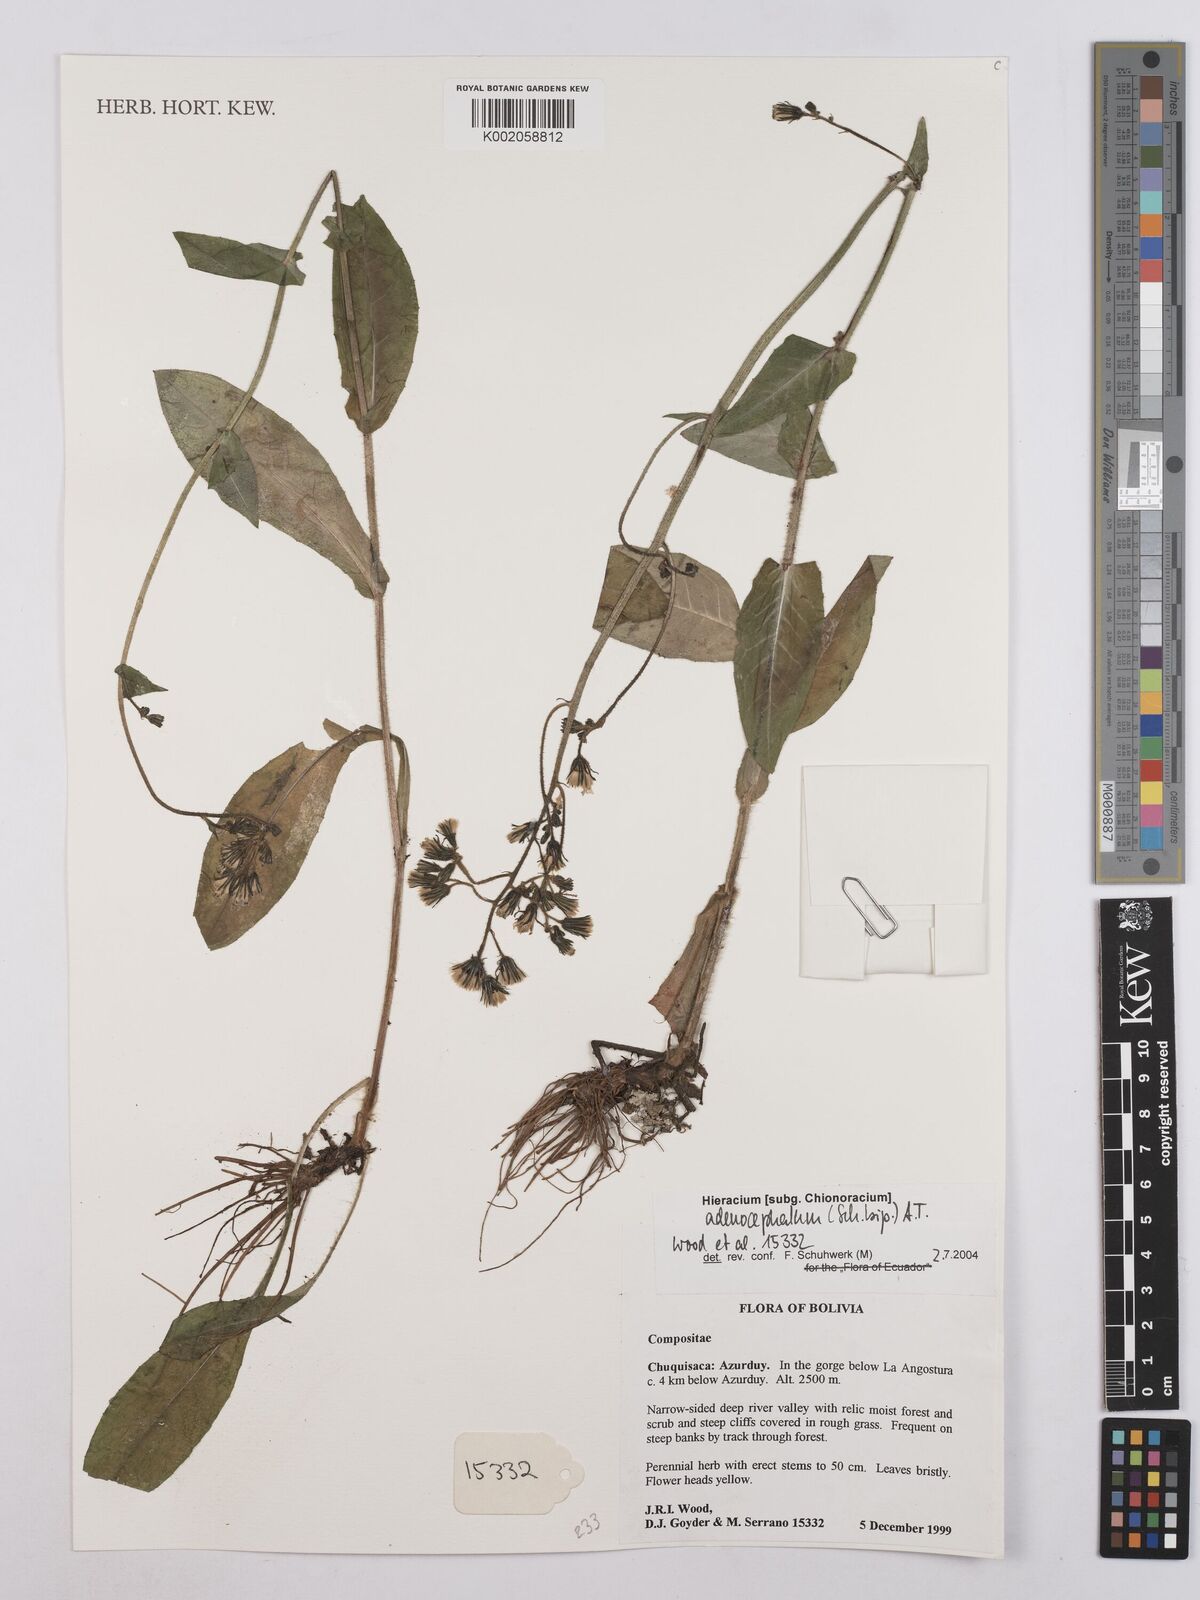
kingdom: Plantae
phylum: Tracheophyta
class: Magnoliopsida
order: Asterales
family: Asteraceae
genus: Hieracium
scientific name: Hieracium mandonii
